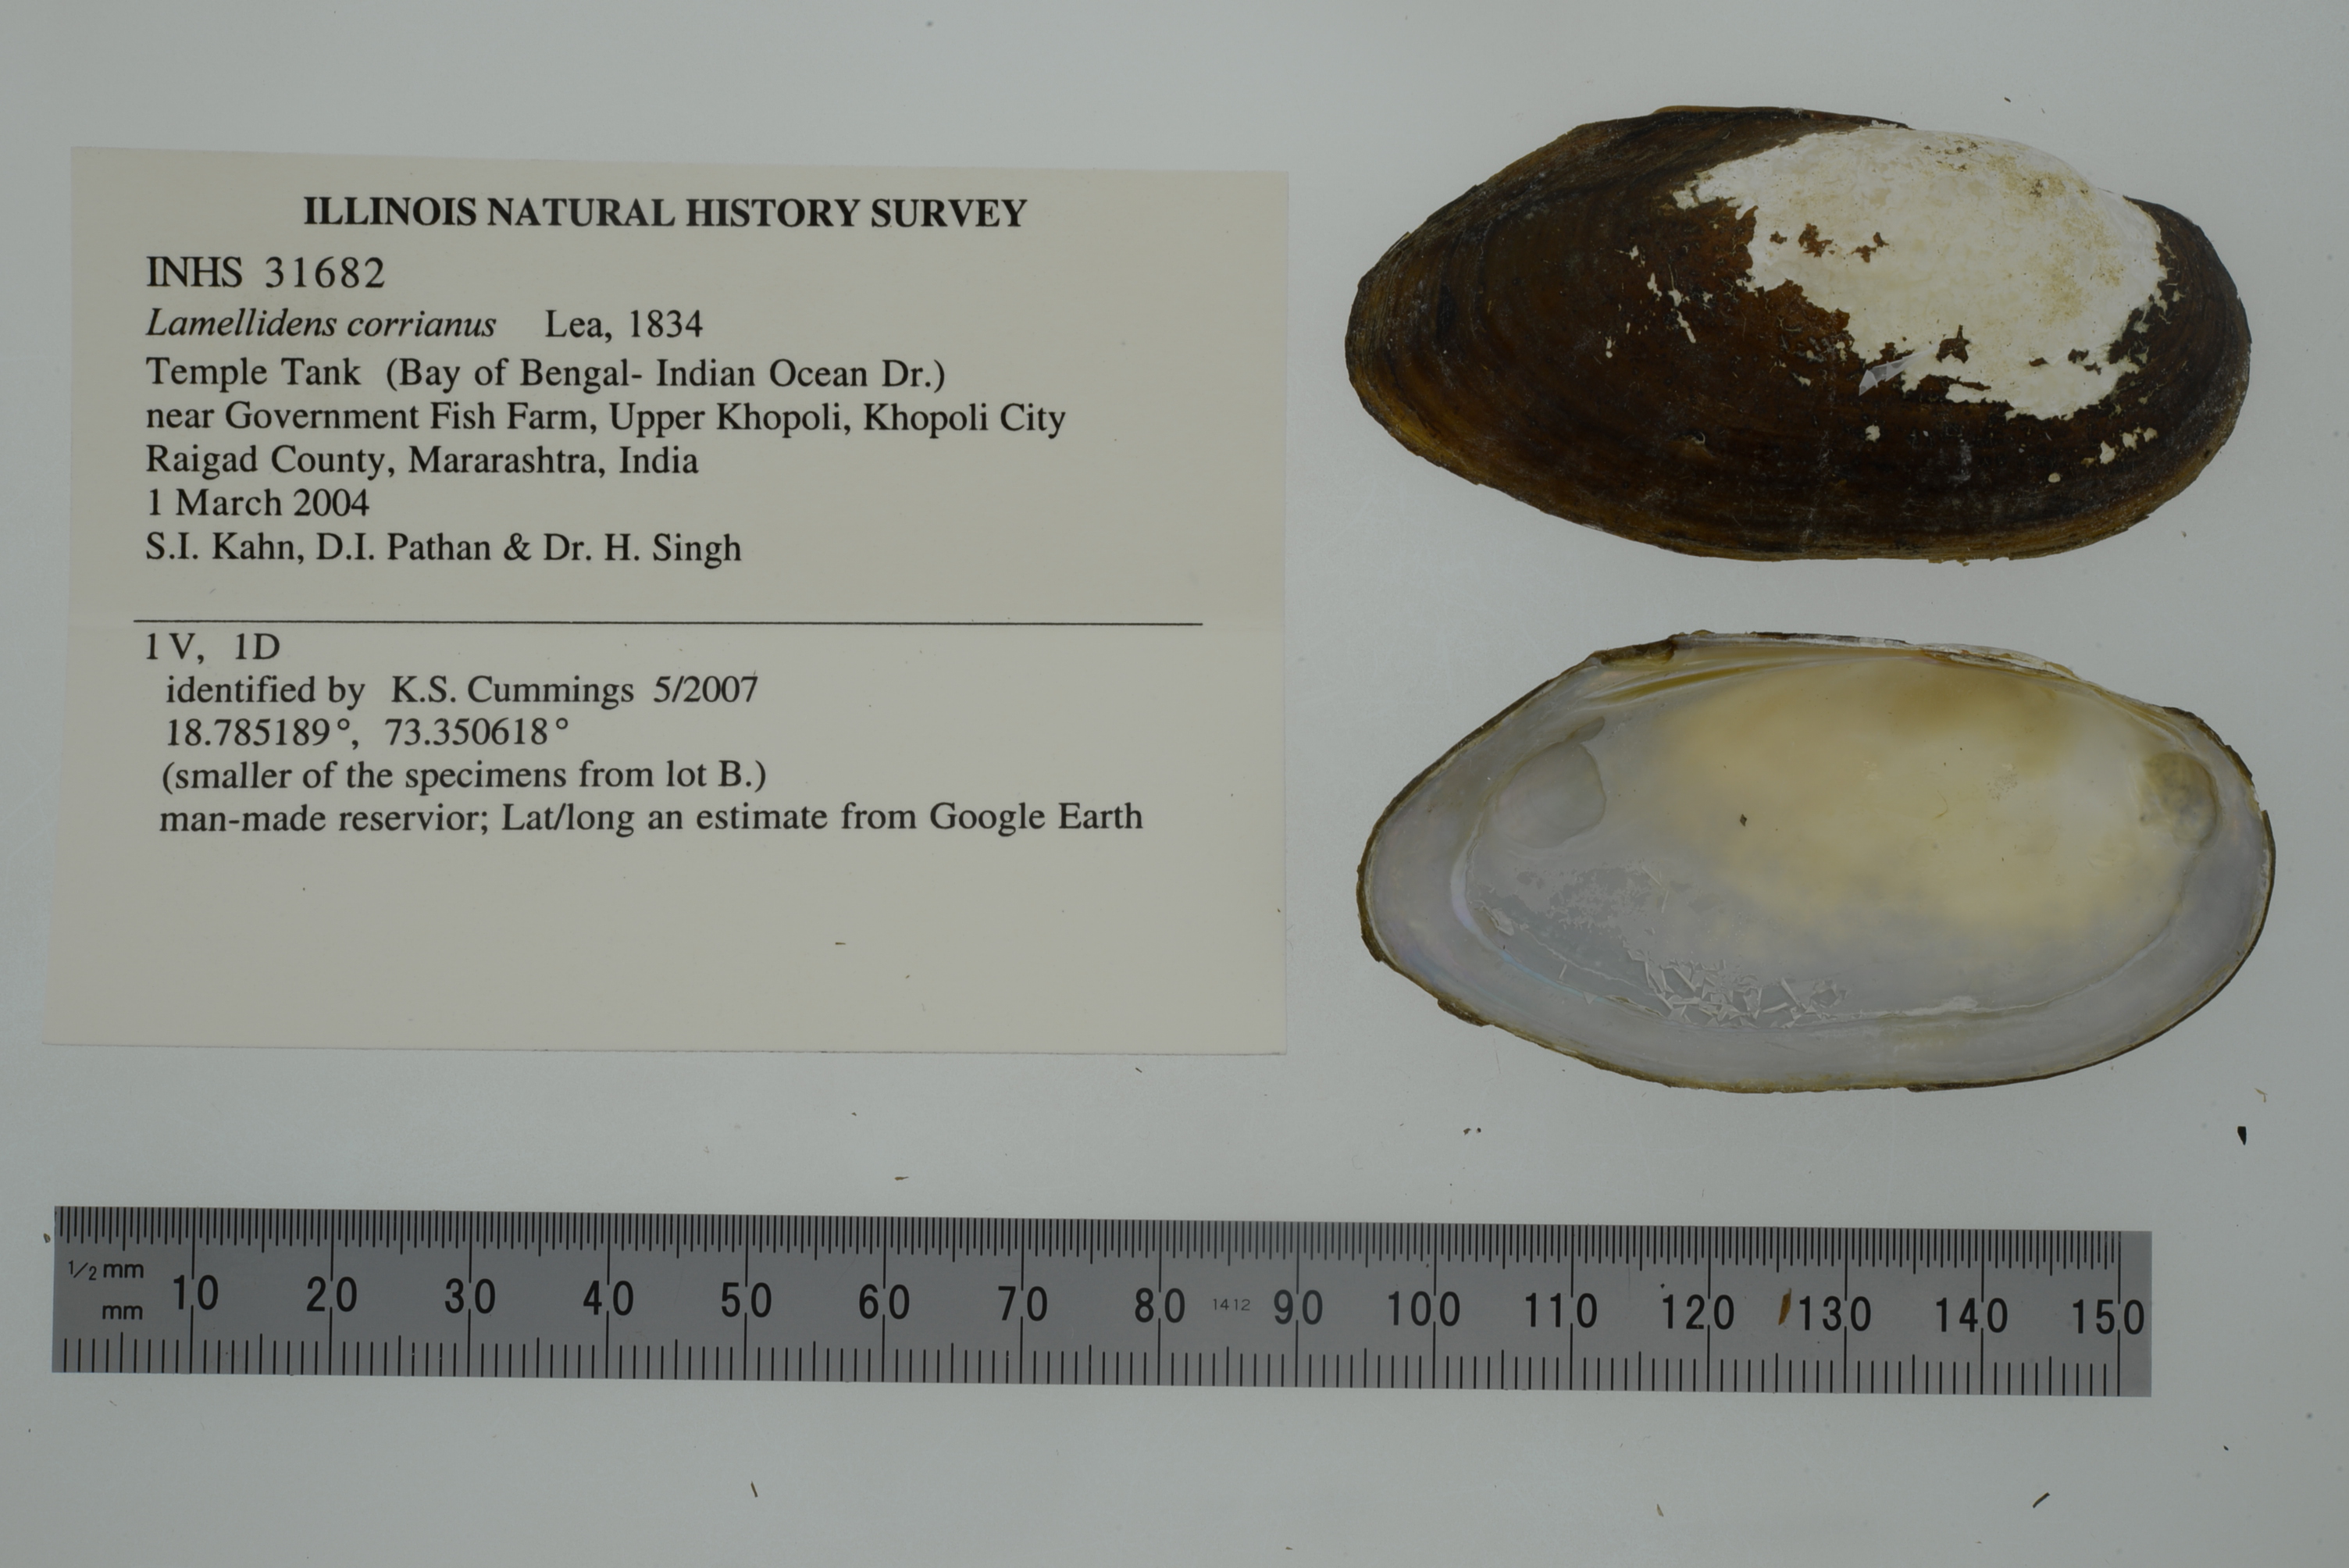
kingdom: Animalia
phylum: Mollusca
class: Bivalvia
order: Unionida
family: Unionidae
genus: Lamellidens
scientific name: Lamellidens corrianus
